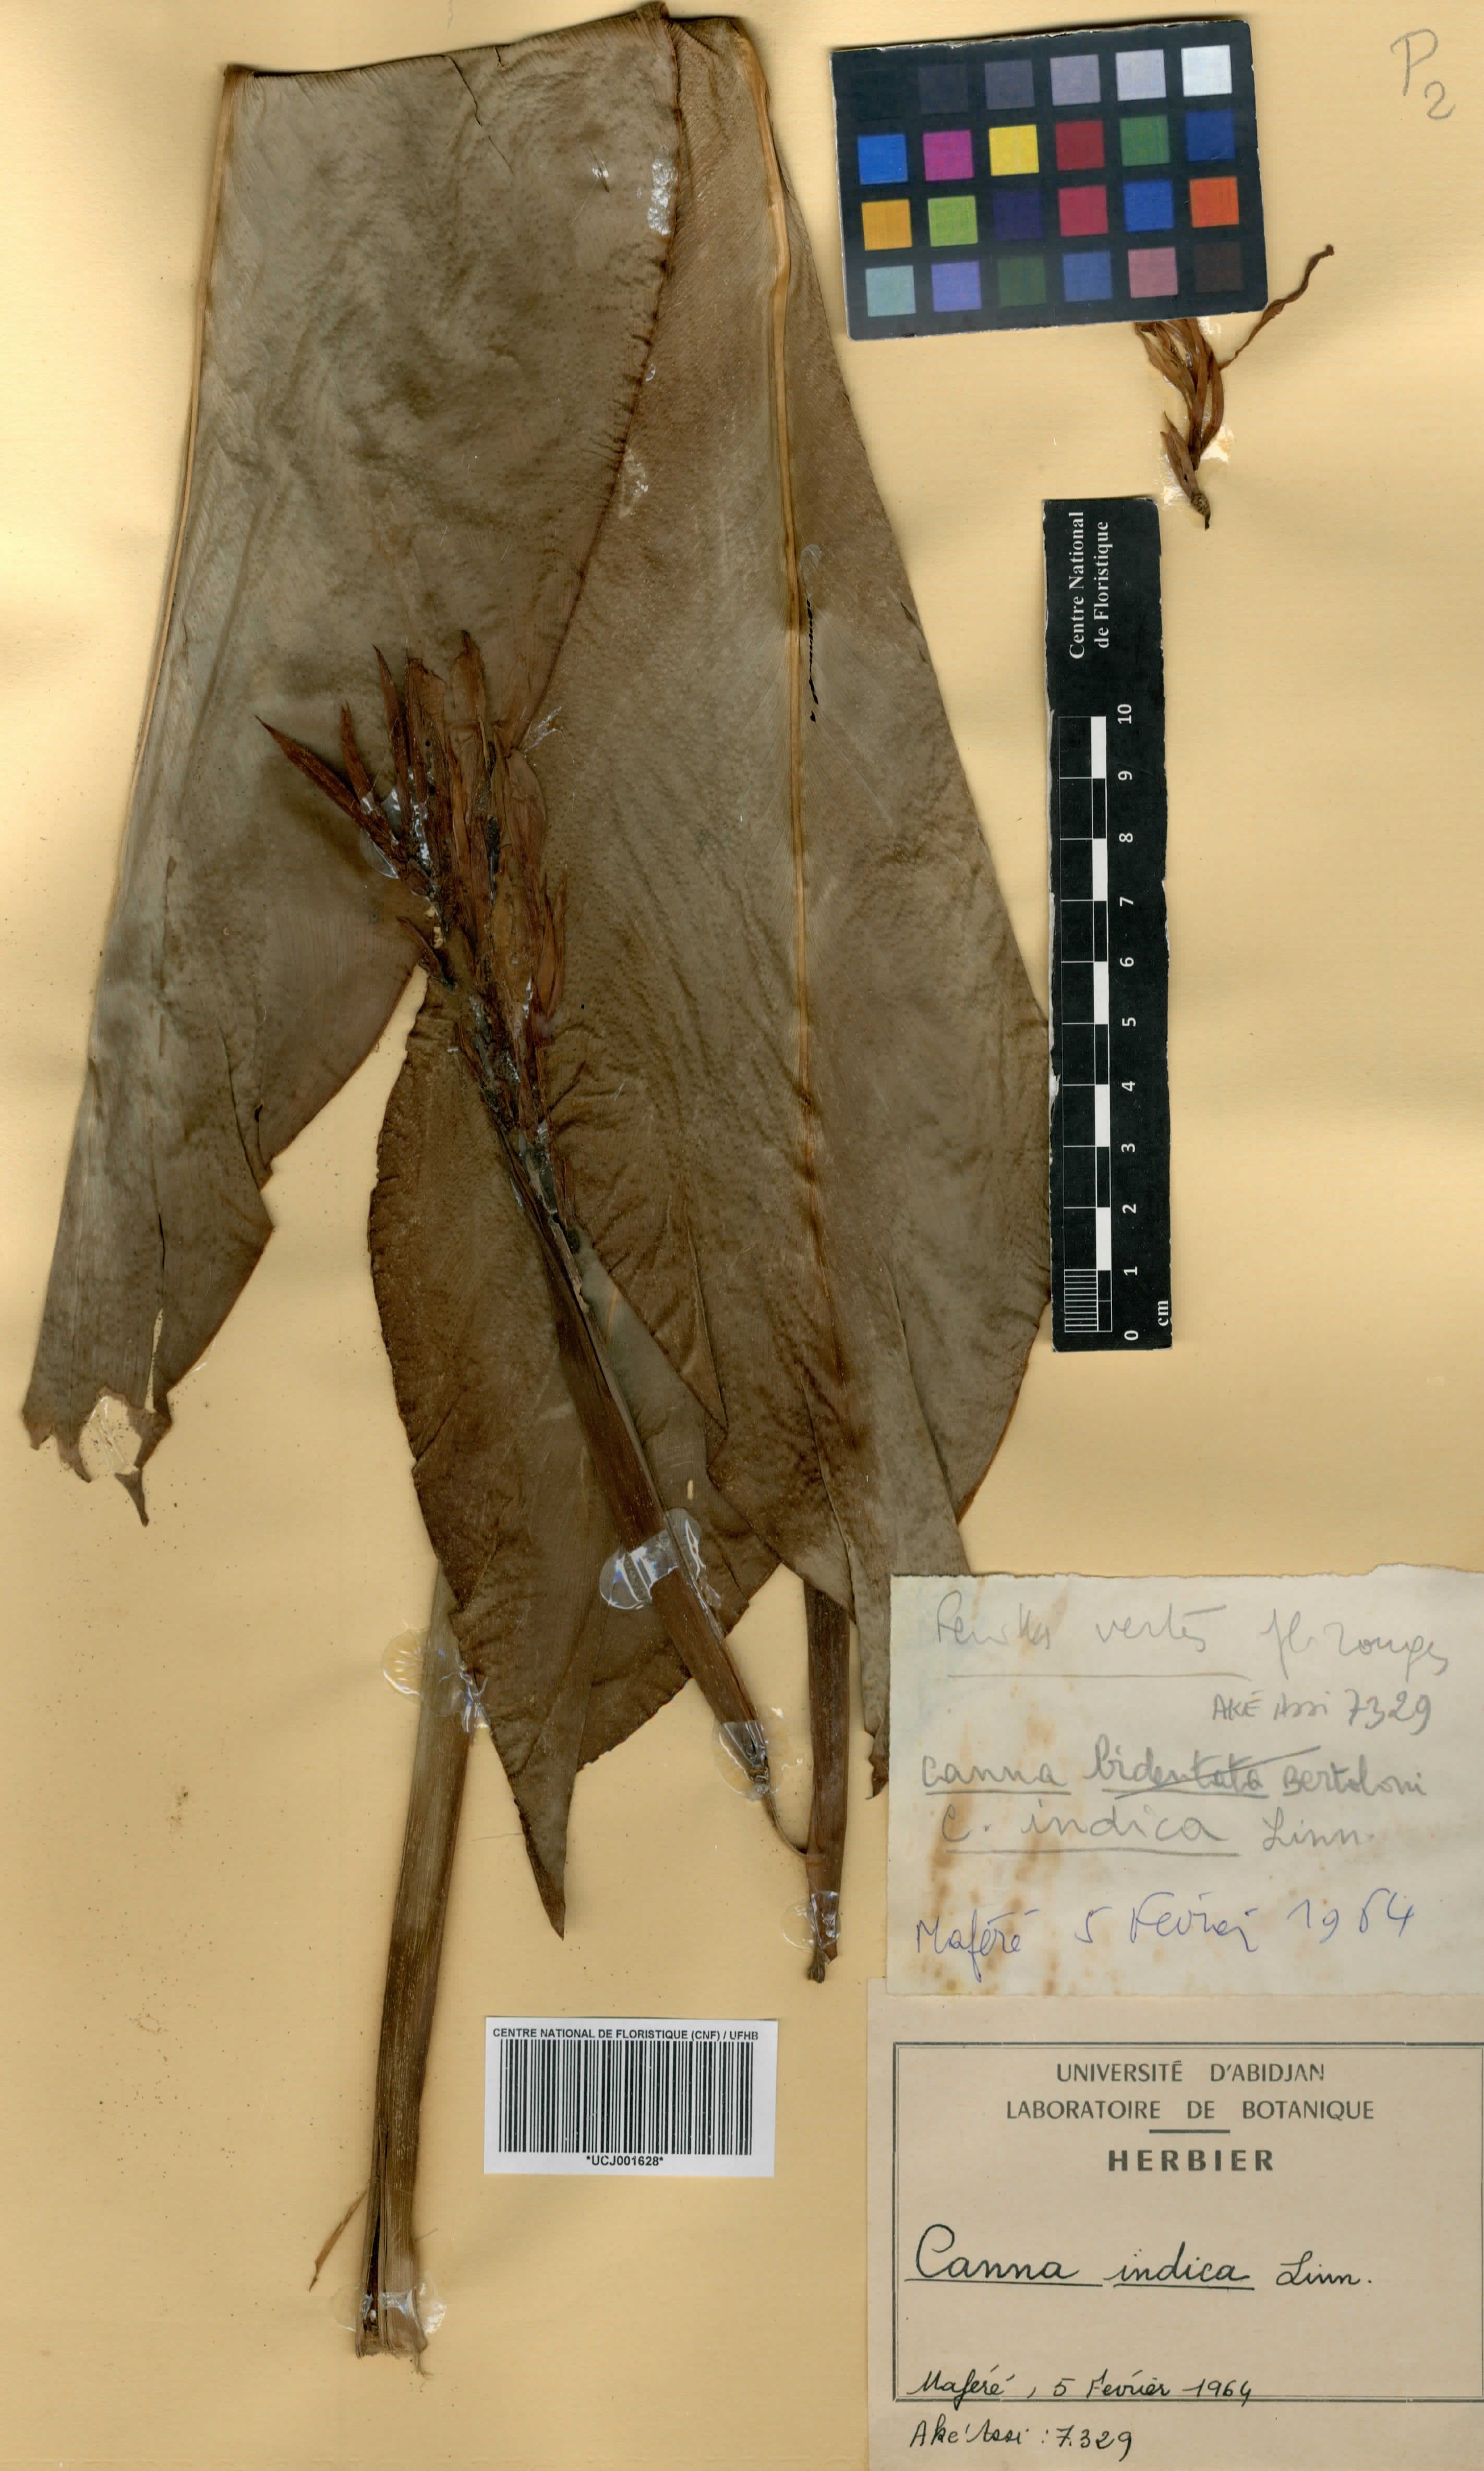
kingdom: Plantae
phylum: Tracheophyta
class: Liliopsida
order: Zingiberales
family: Cannaceae
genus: Canna
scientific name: Canna indica
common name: Indian shot
